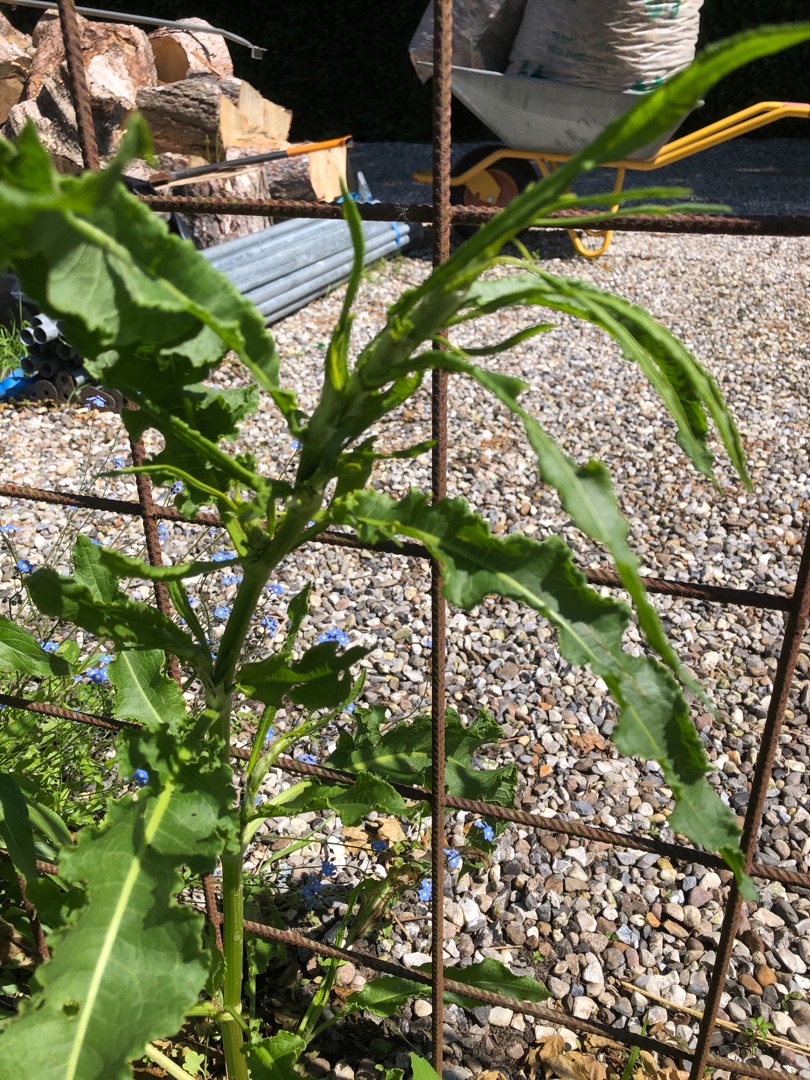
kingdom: Plantae
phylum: Tracheophyta
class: Magnoliopsida
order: Caryophyllales
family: Polygonaceae
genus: Rumex
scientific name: Rumex crispus
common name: Kruset skræppe
